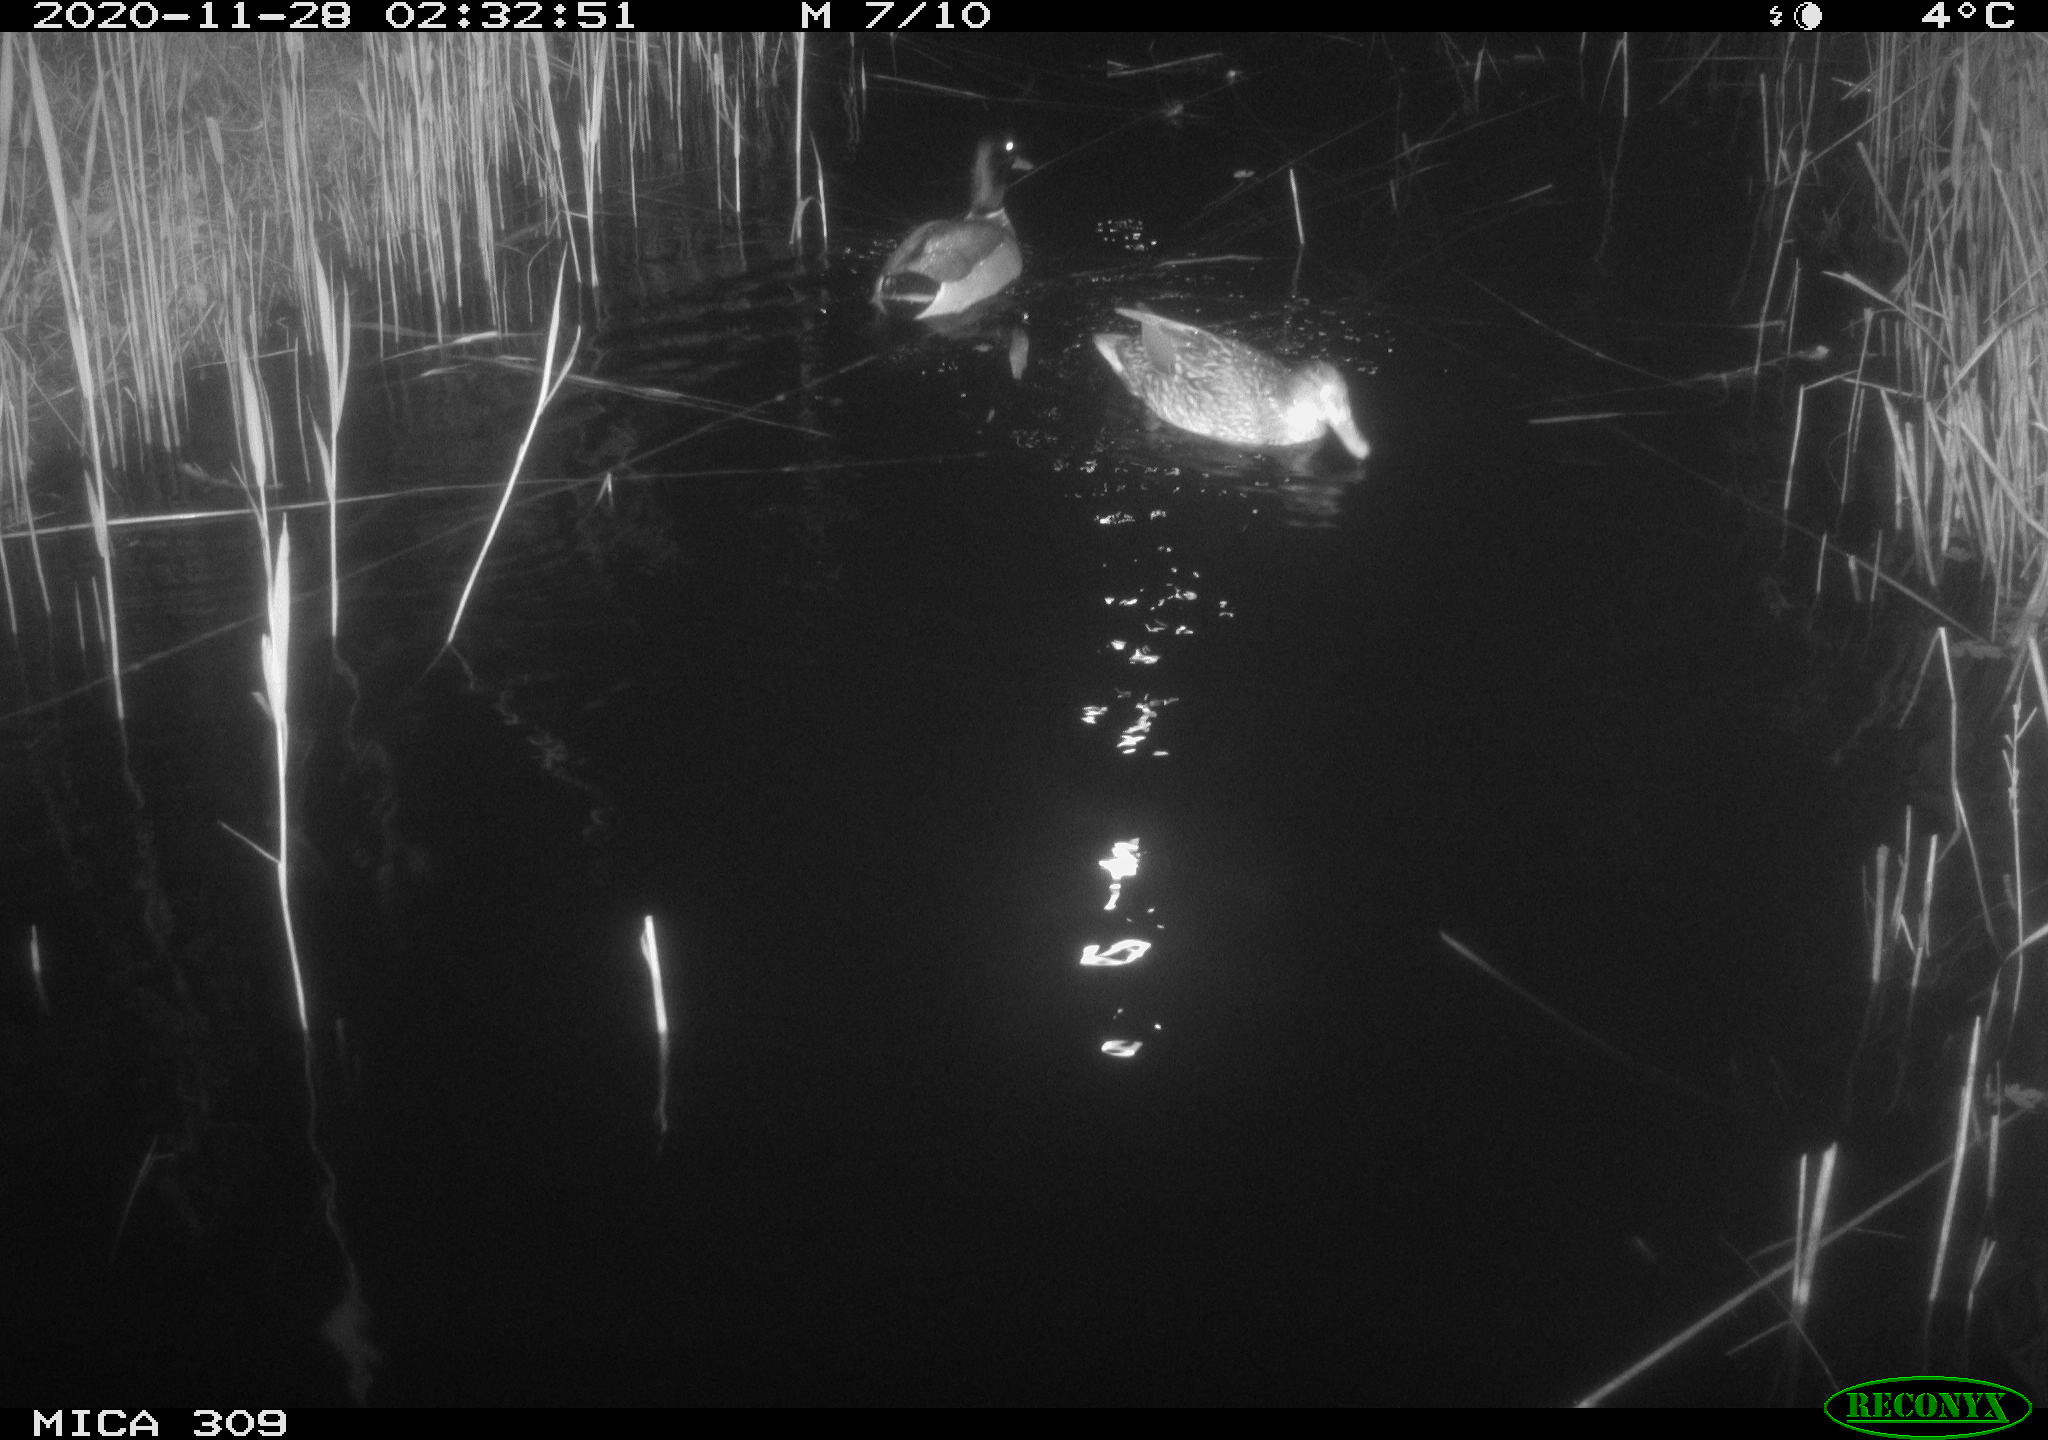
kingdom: Animalia
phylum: Chordata
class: Aves
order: Anseriformes
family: Anatidae
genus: Anas
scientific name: Anas platyrhynchos
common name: Mallard
